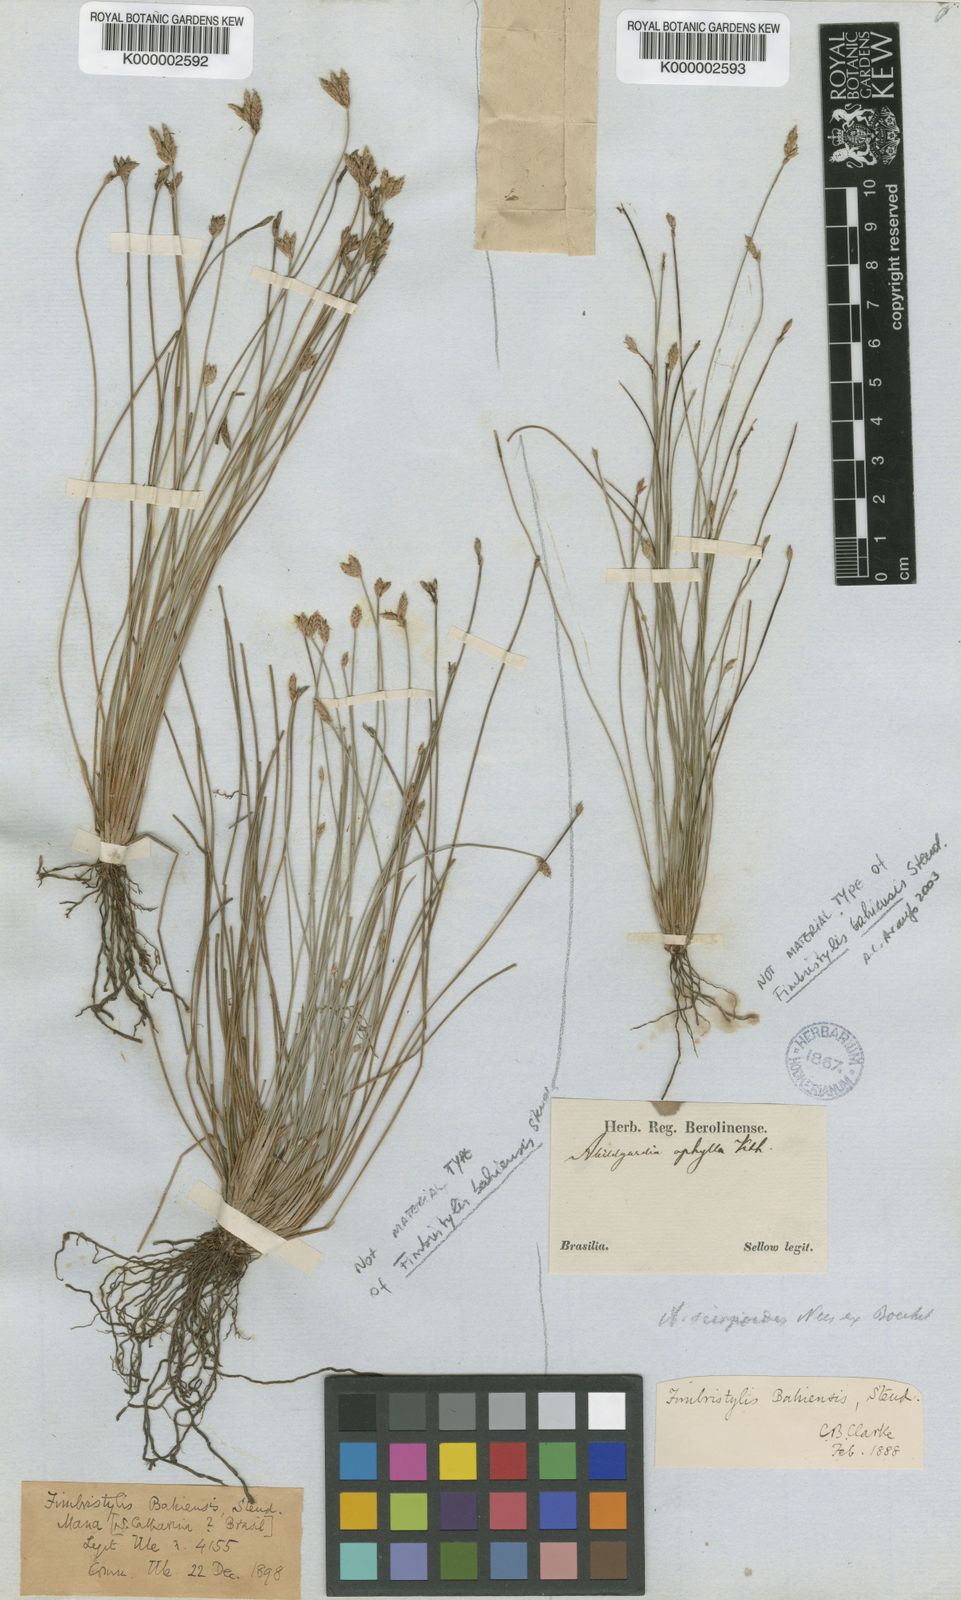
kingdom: Plantae
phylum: Tracheophyta
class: Liliopsida
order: Poales
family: Cyperaceae
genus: Fimbristylis
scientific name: Fimbristylis bahiensis
